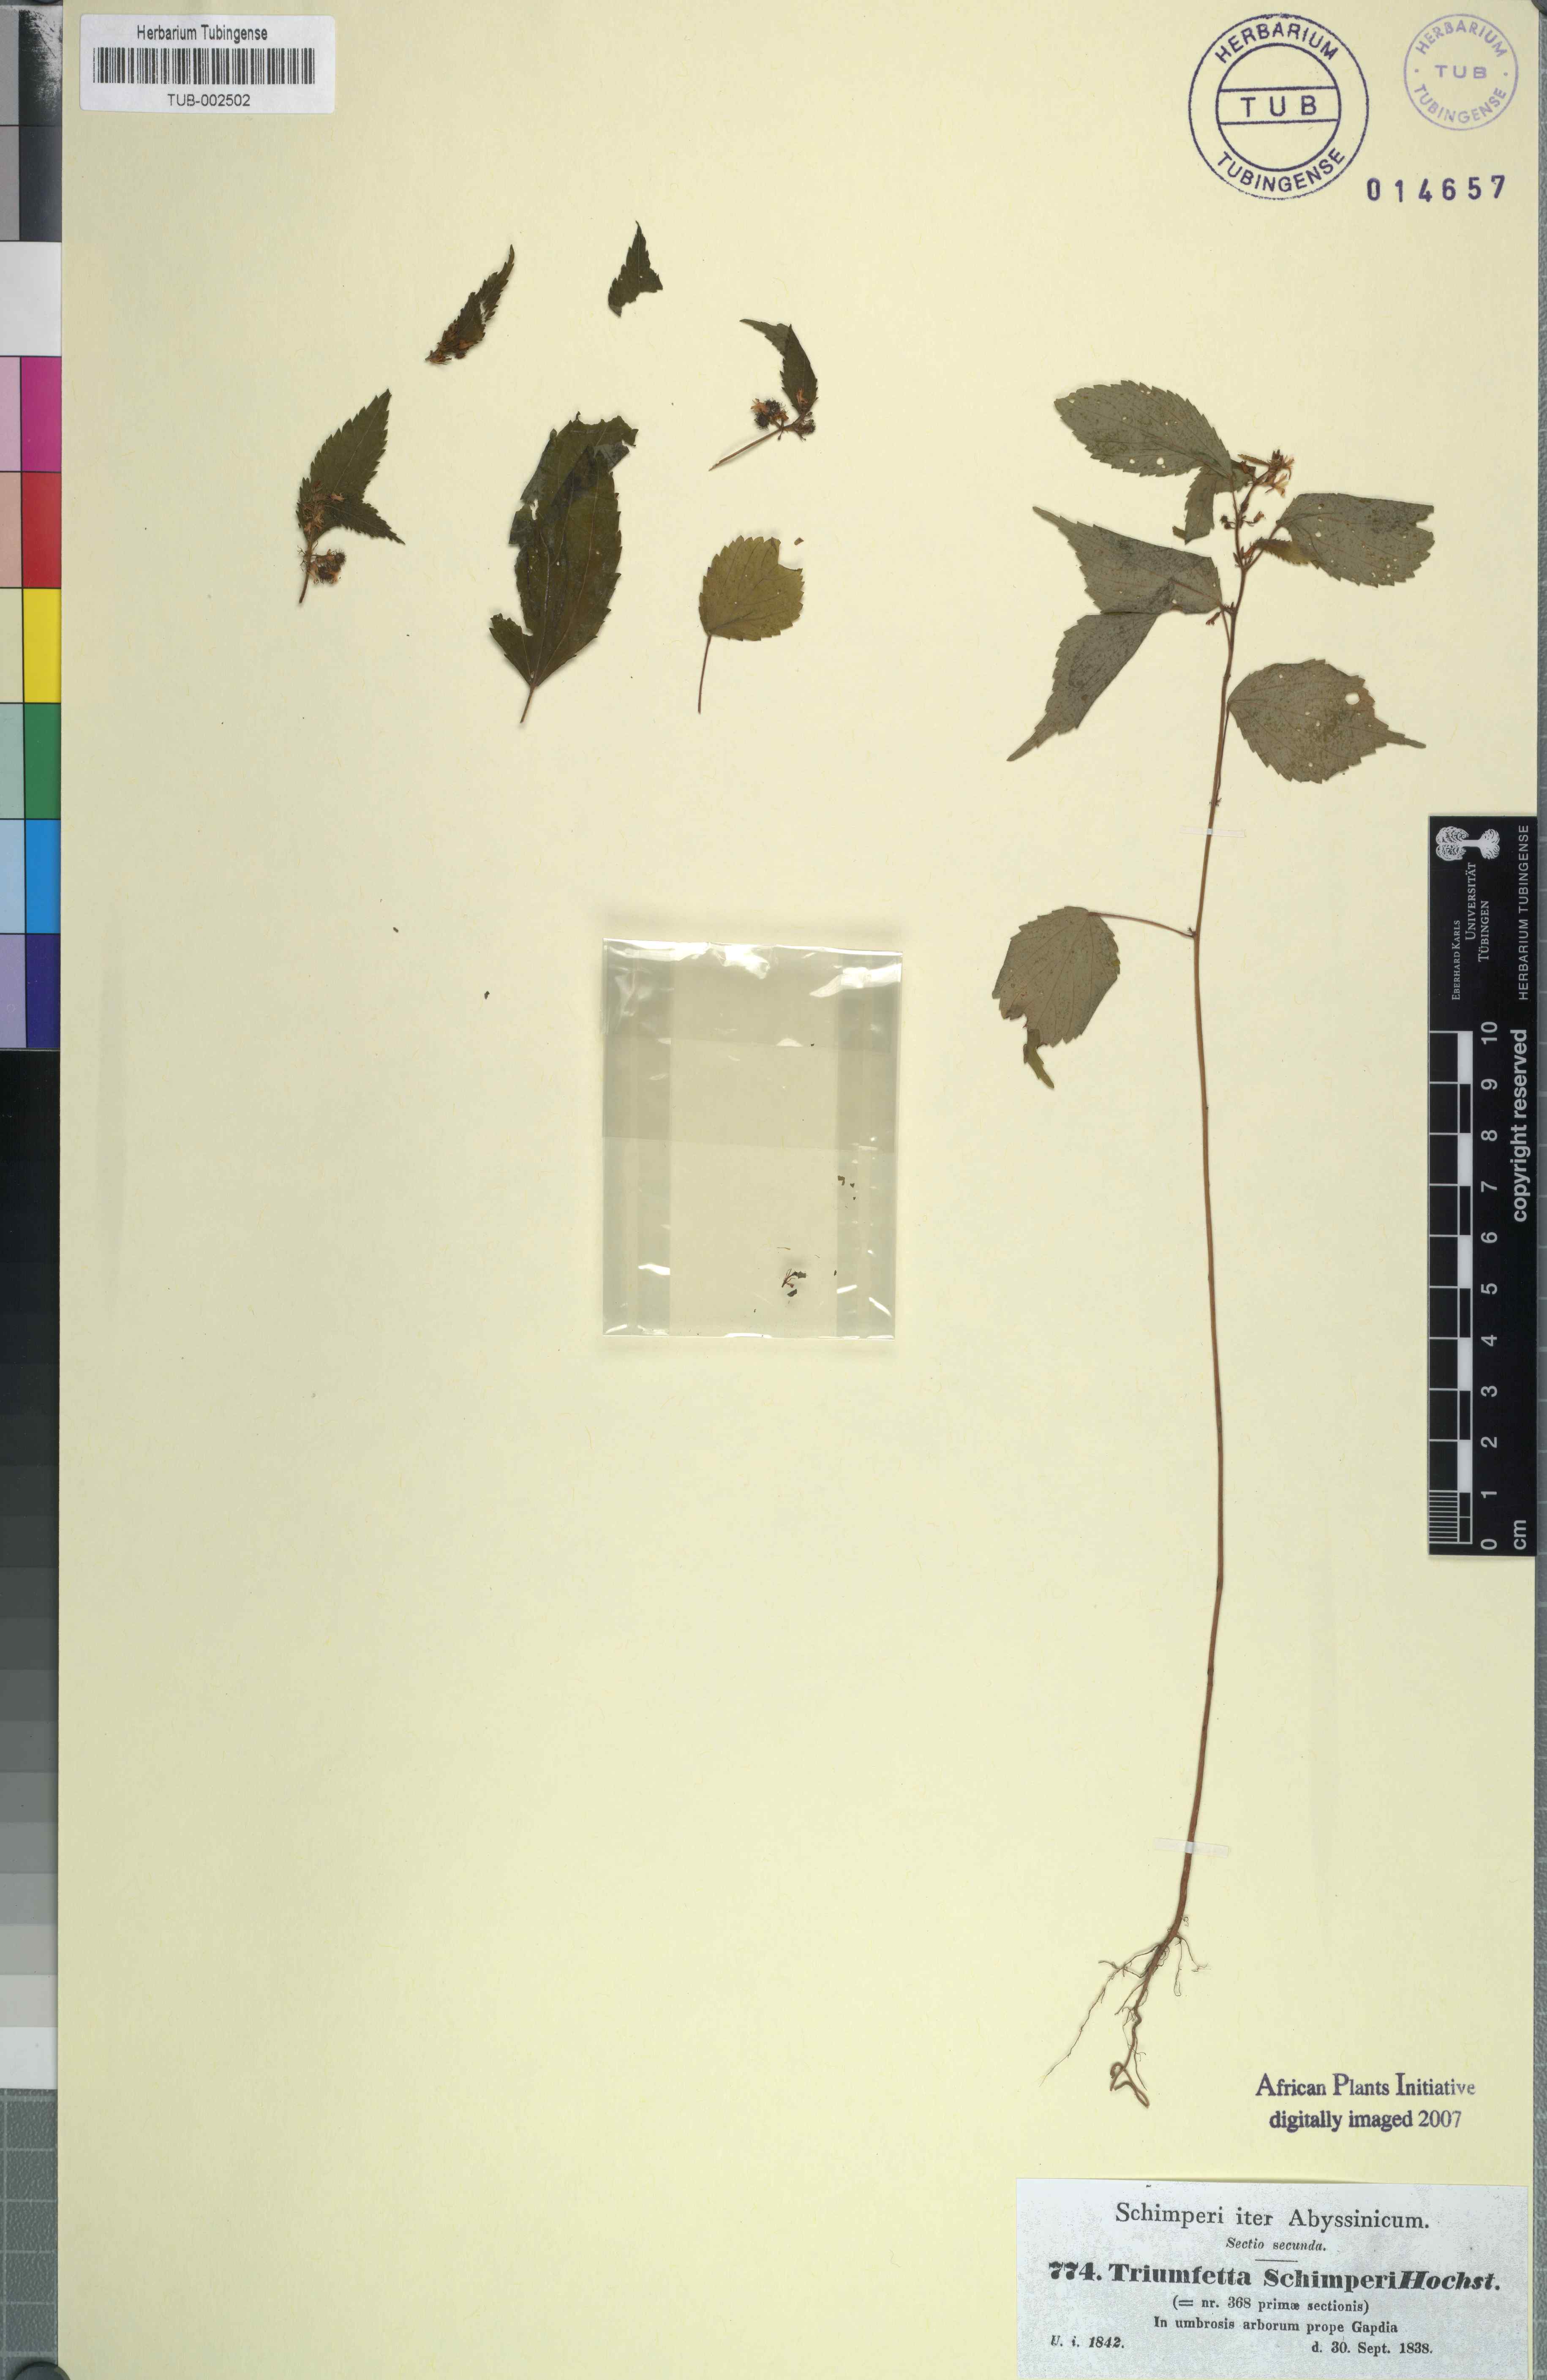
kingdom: Plantae
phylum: Tracheophyta
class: Magnoliopsida
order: Malvales
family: Malvaceae
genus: Triumfetta
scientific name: Triumfetta annua
